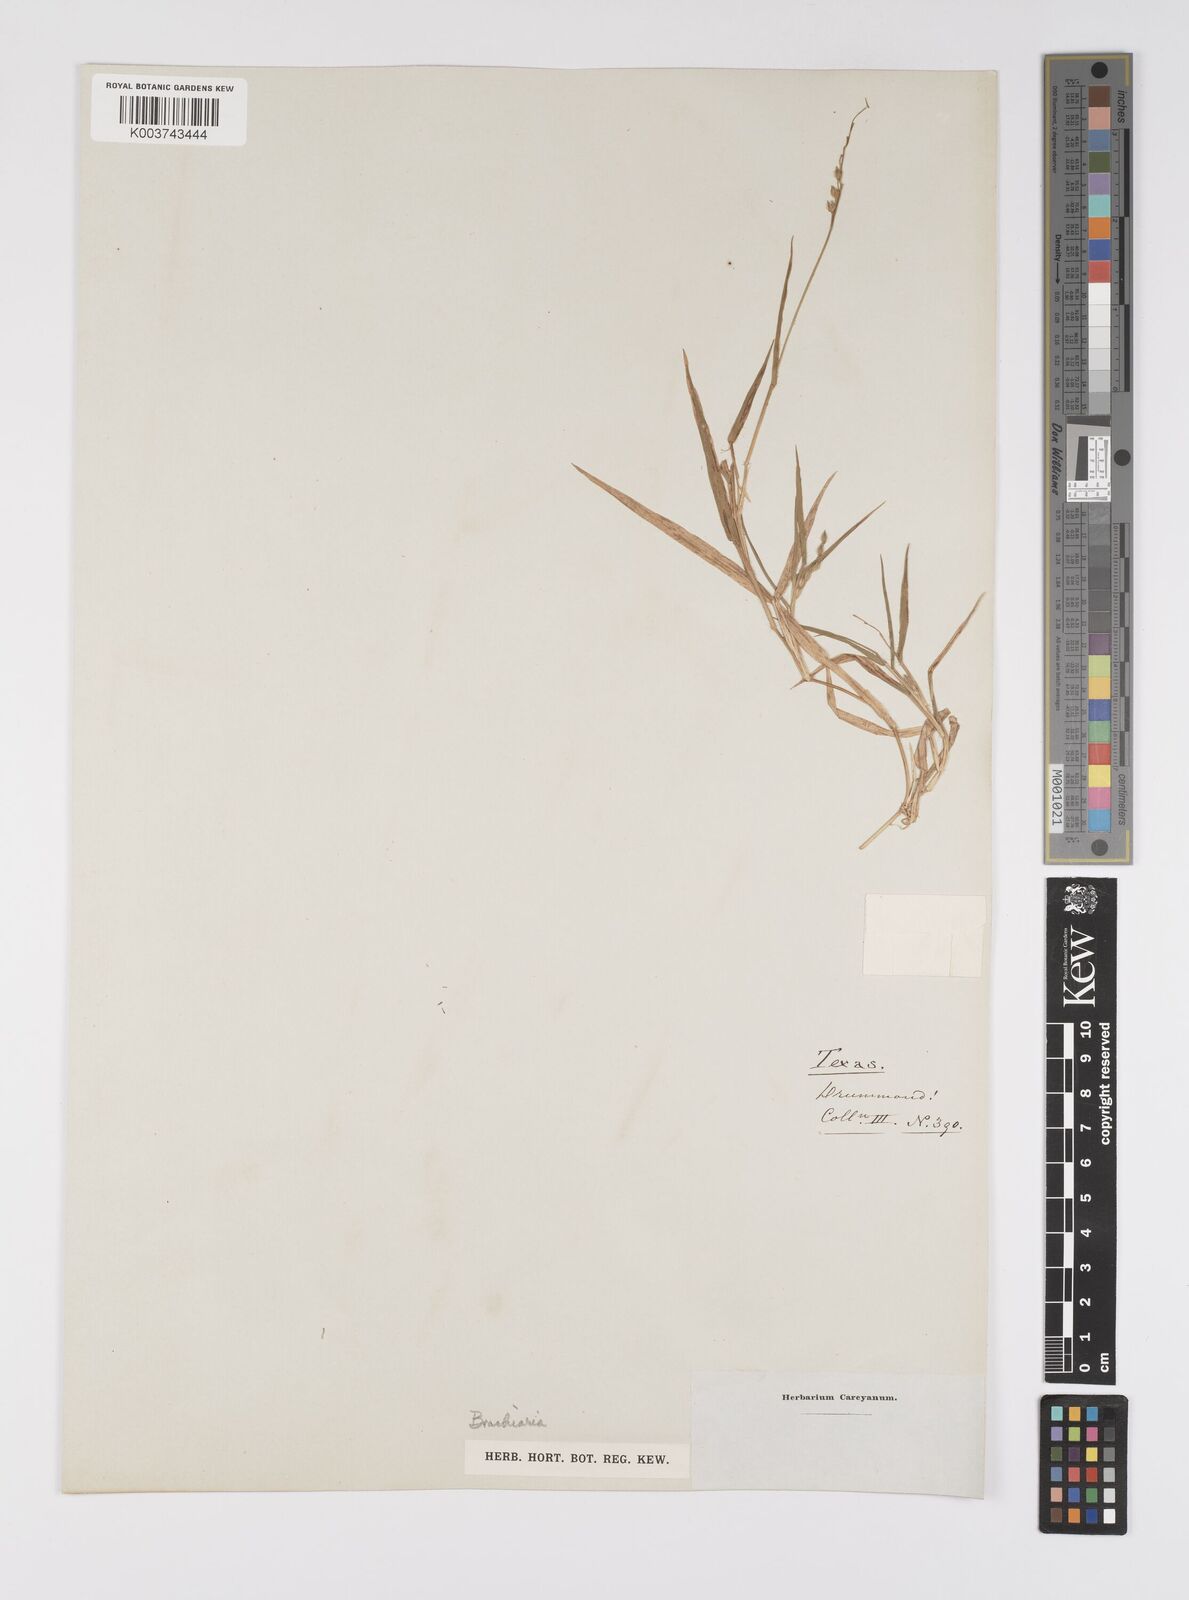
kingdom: Plantae
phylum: Tracheophyta
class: Liliopsida
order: Poales
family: Poaceae
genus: Urochloa
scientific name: Urochloa ciliatissima
